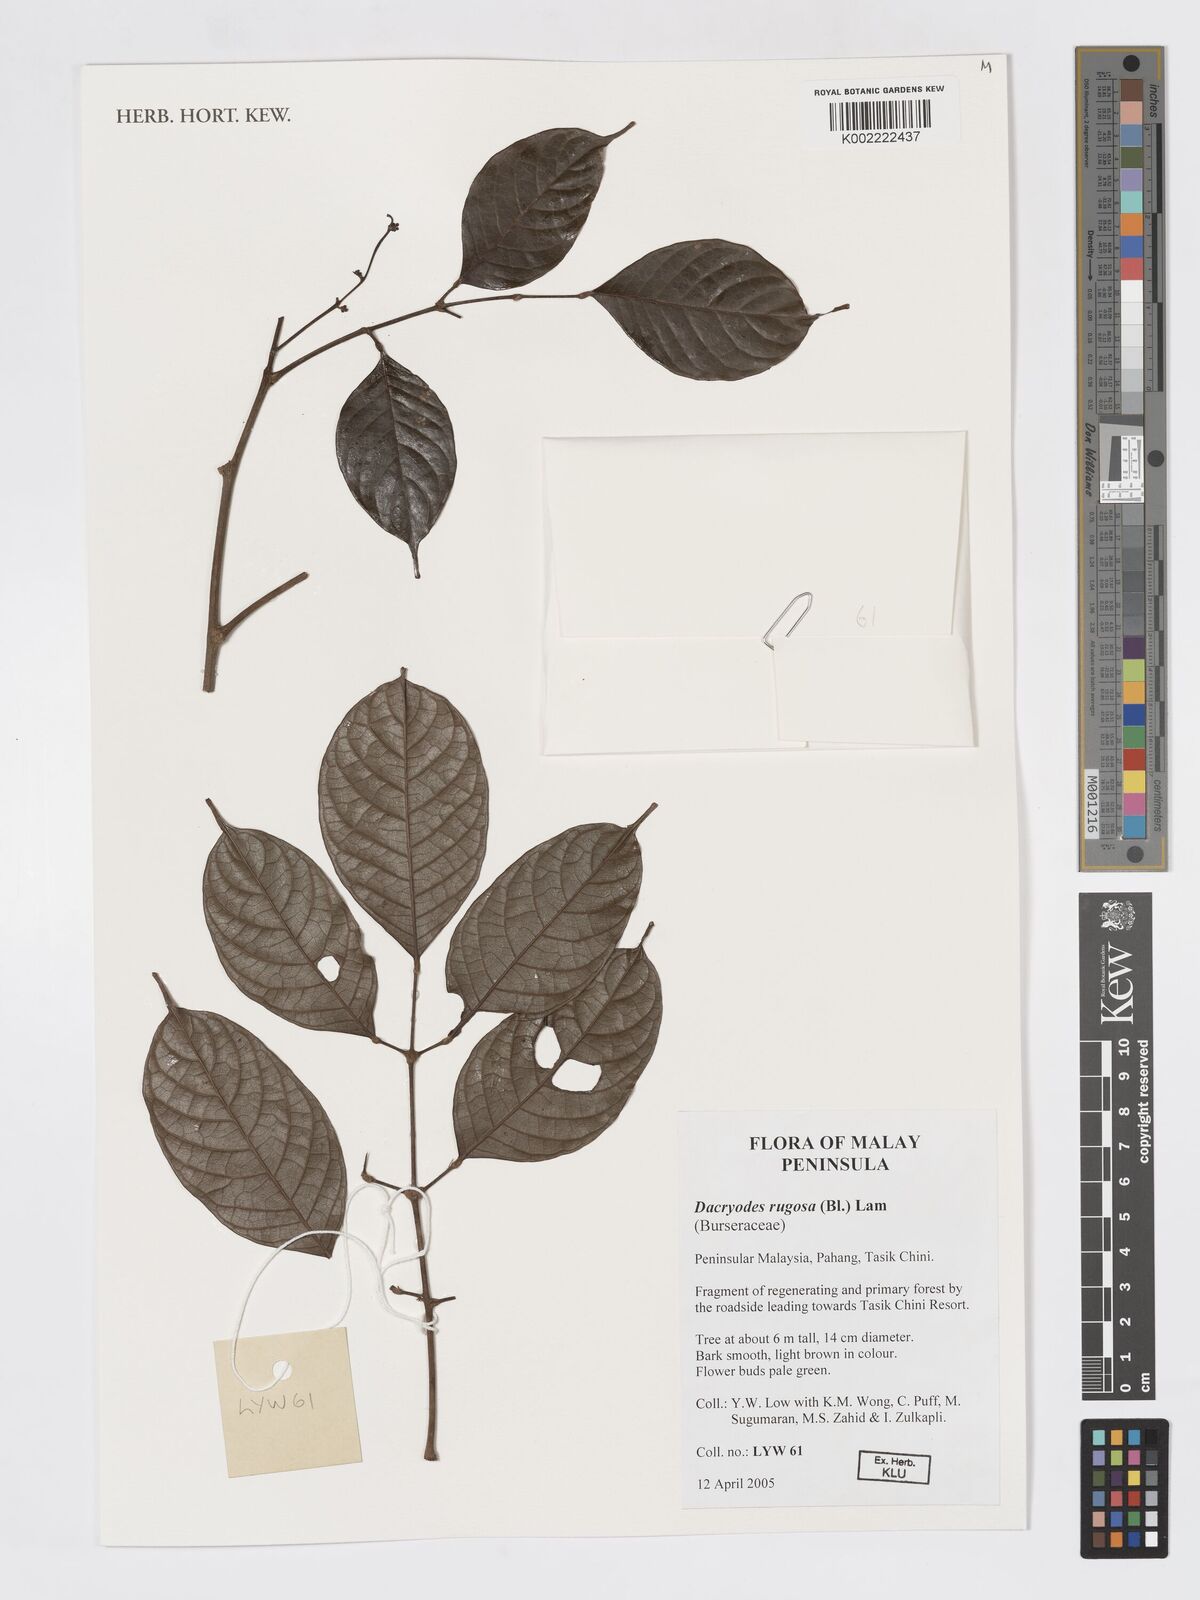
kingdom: Plantae
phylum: Tracheophyta
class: Magnoliopsida
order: Sapindales
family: Burseraceae
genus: Dacryodes
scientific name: Dacryodes rugosa
